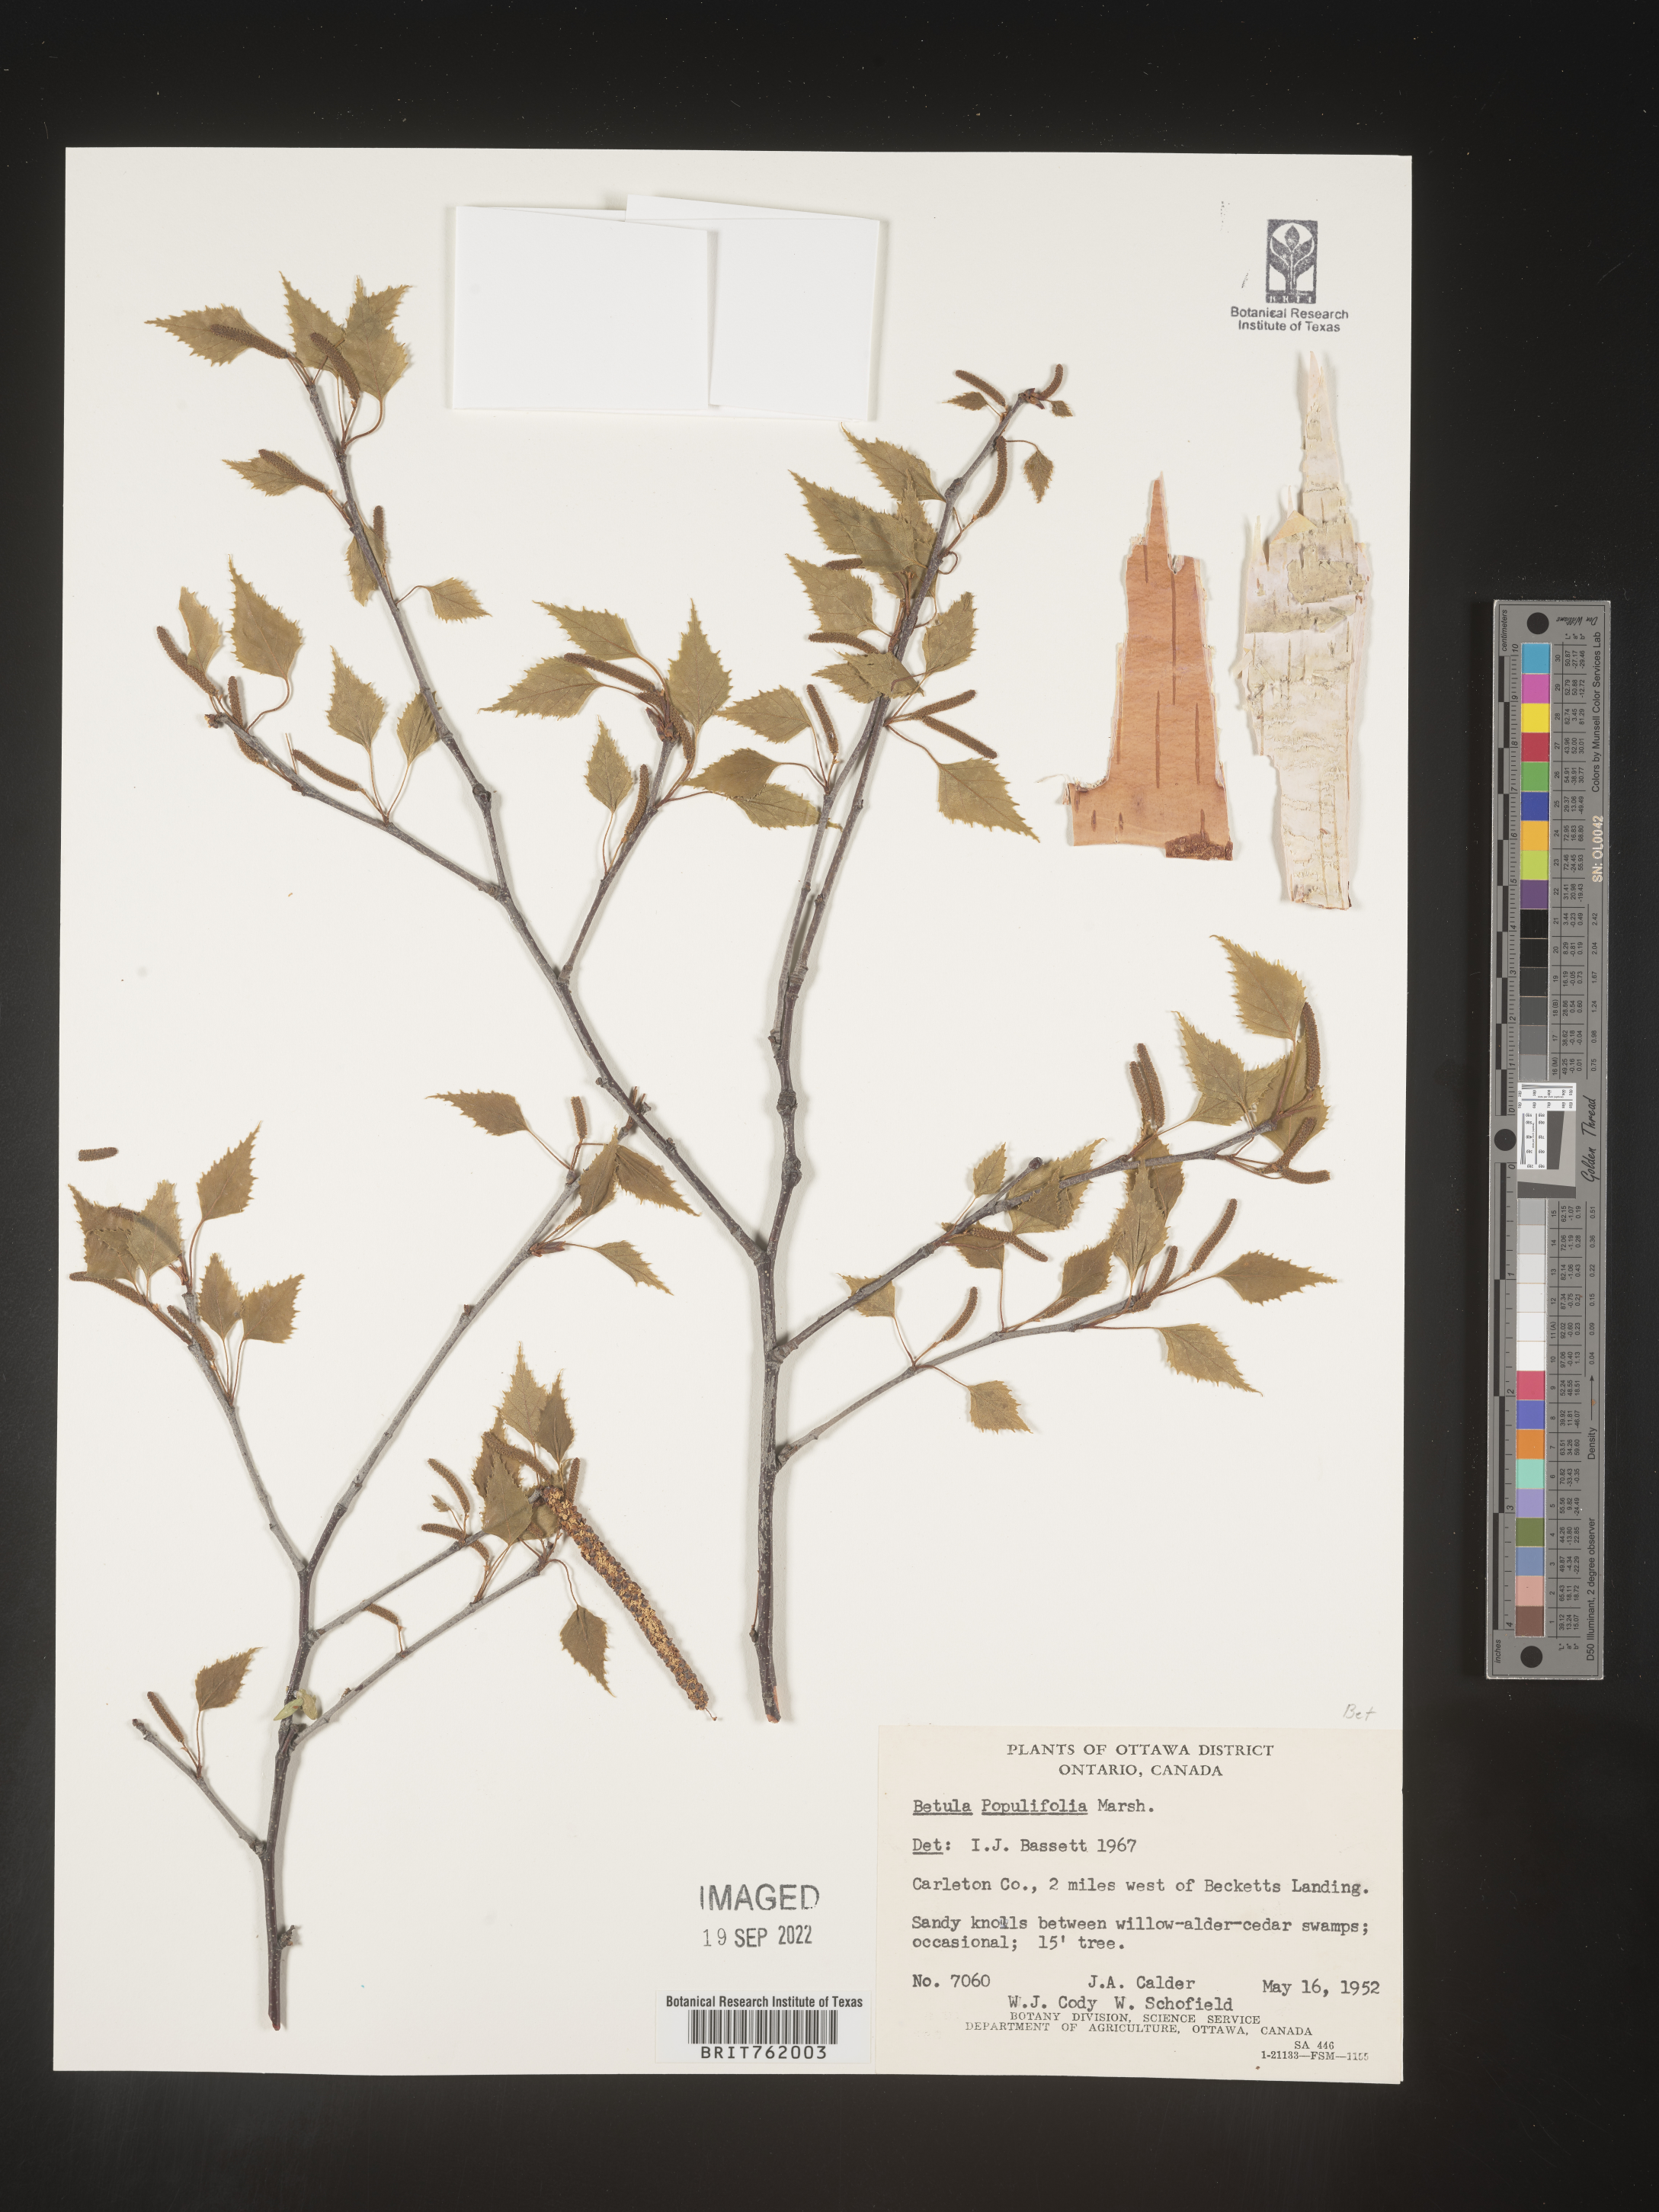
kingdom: Plantae
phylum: Tracheophyta
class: Magnoliopsida
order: Fagales
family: Betulaceae
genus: Betula
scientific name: Betula populifolia
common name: Fire birch
